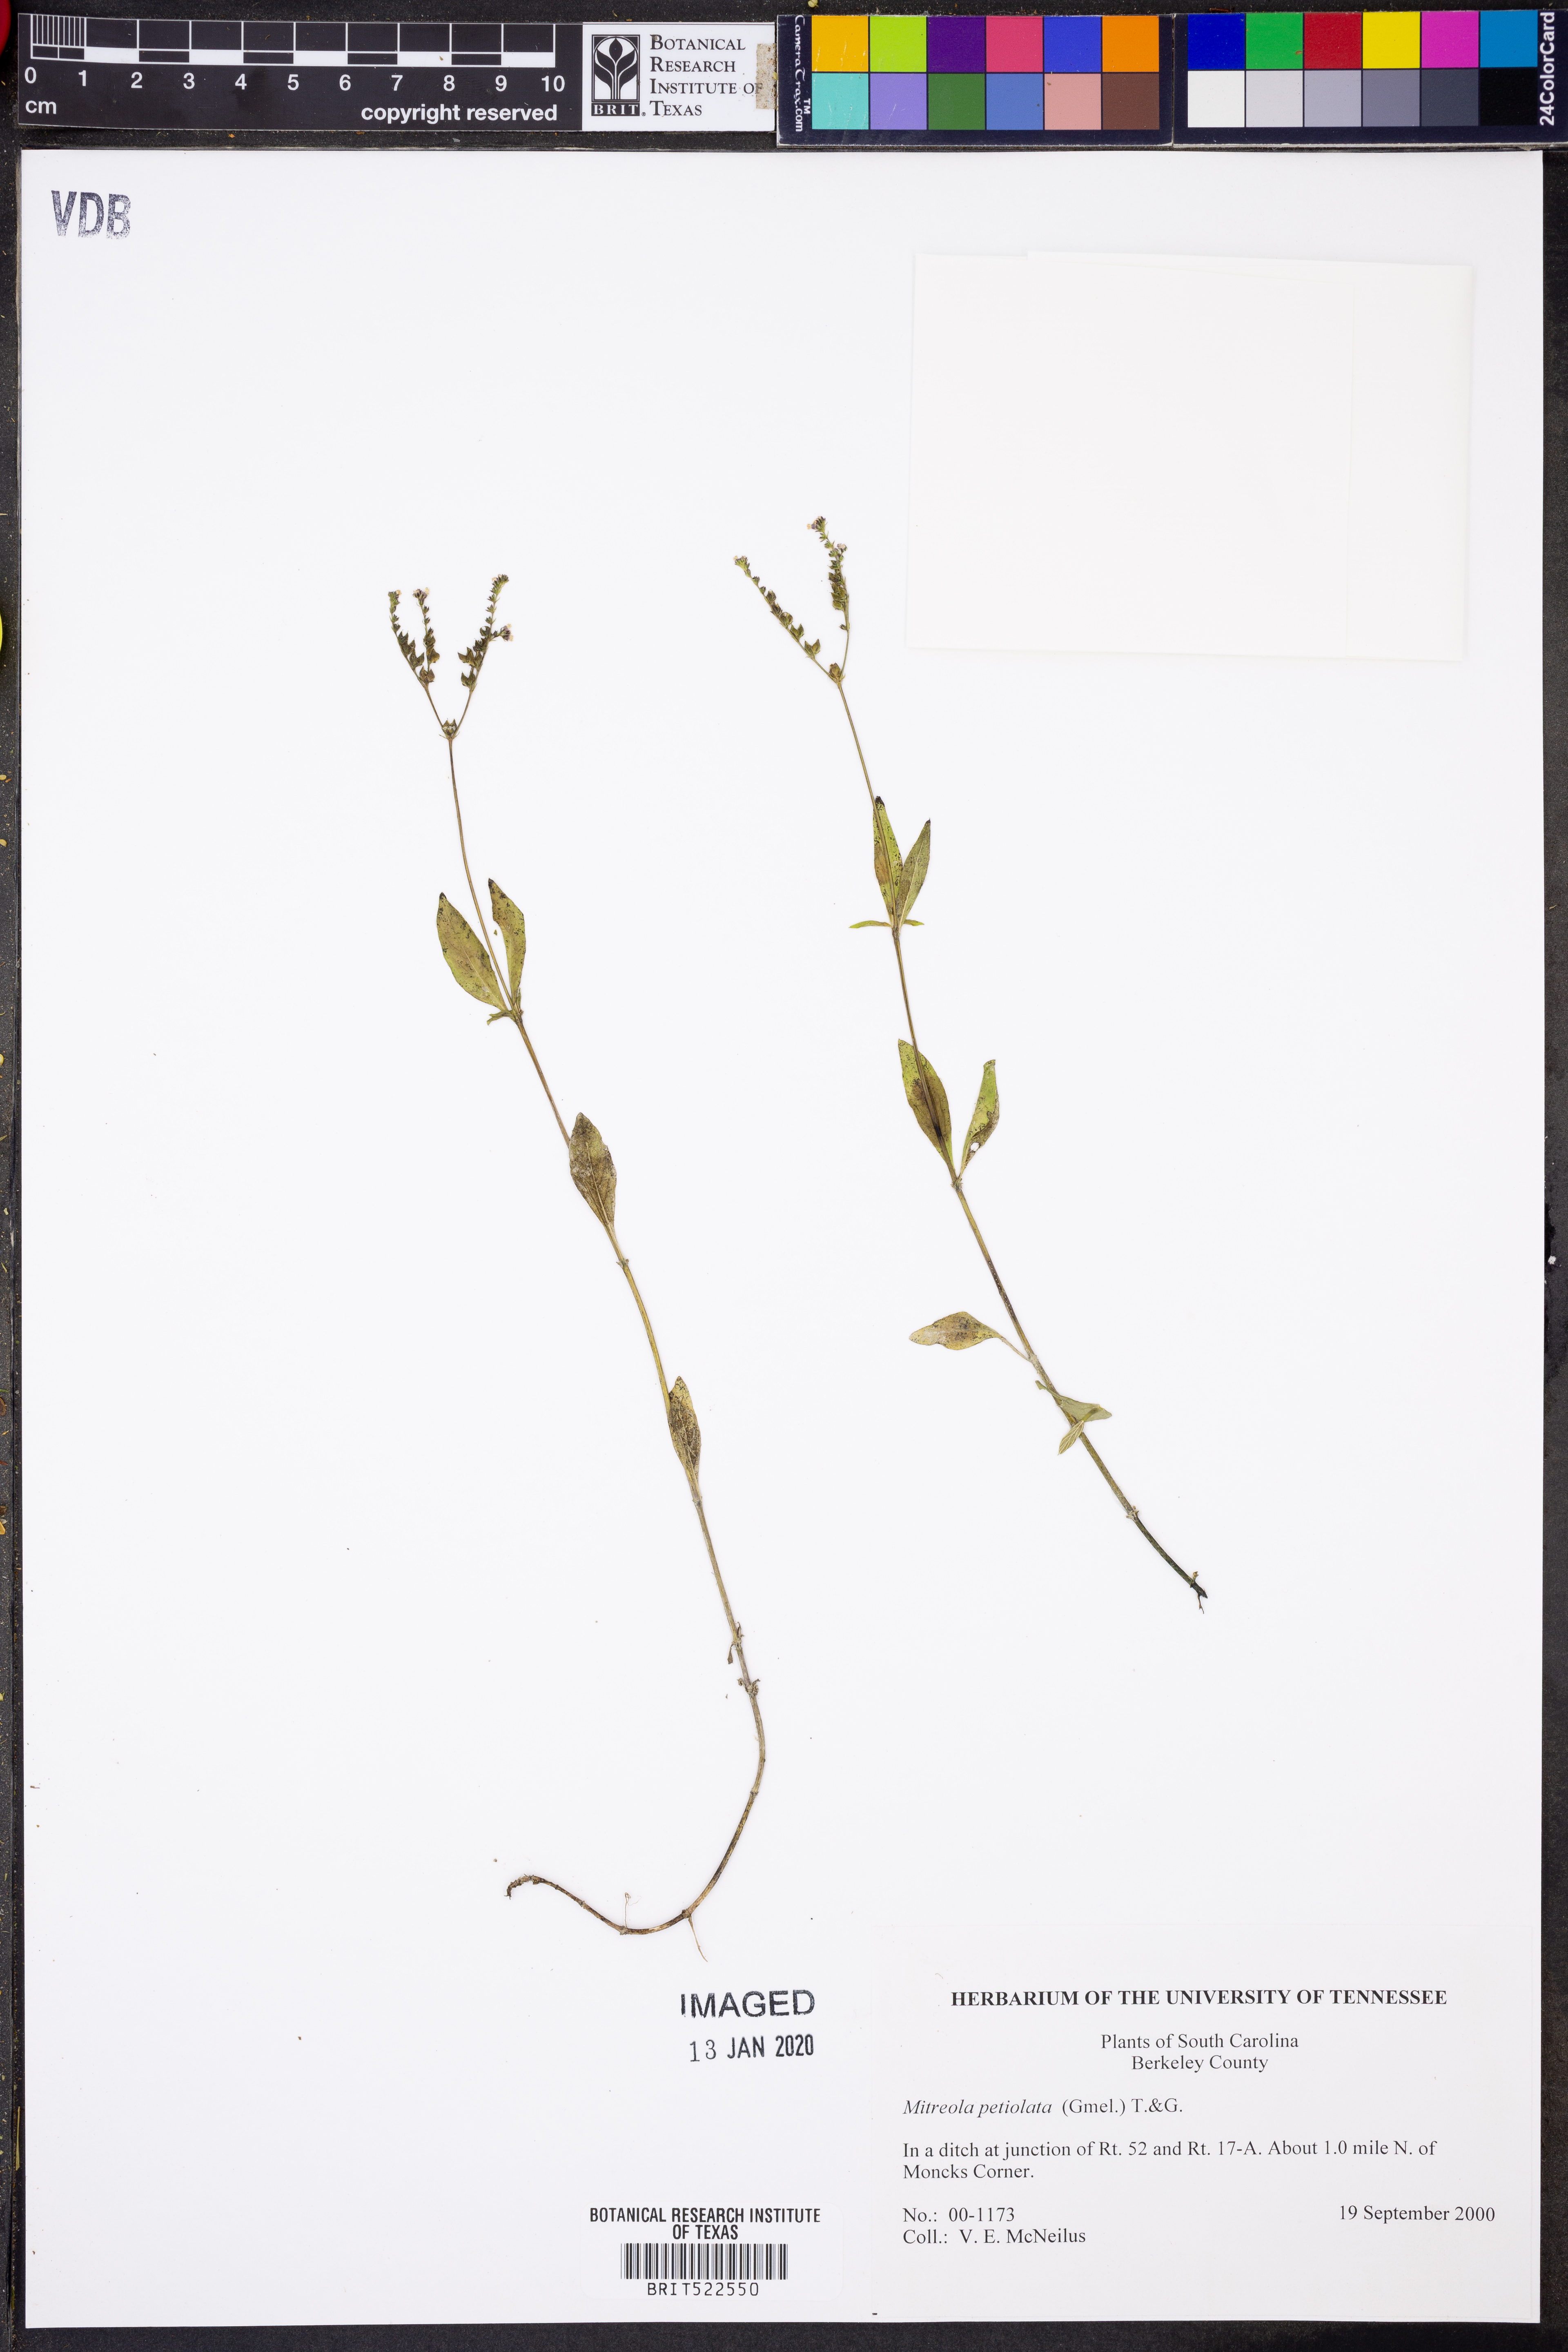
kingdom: Plantae
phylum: Tracheophyta
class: Magnoliopsida
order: Gentianales
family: Loganiaceae
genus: Mitreola
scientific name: Mitreola petiolata
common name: Lax hornpod
